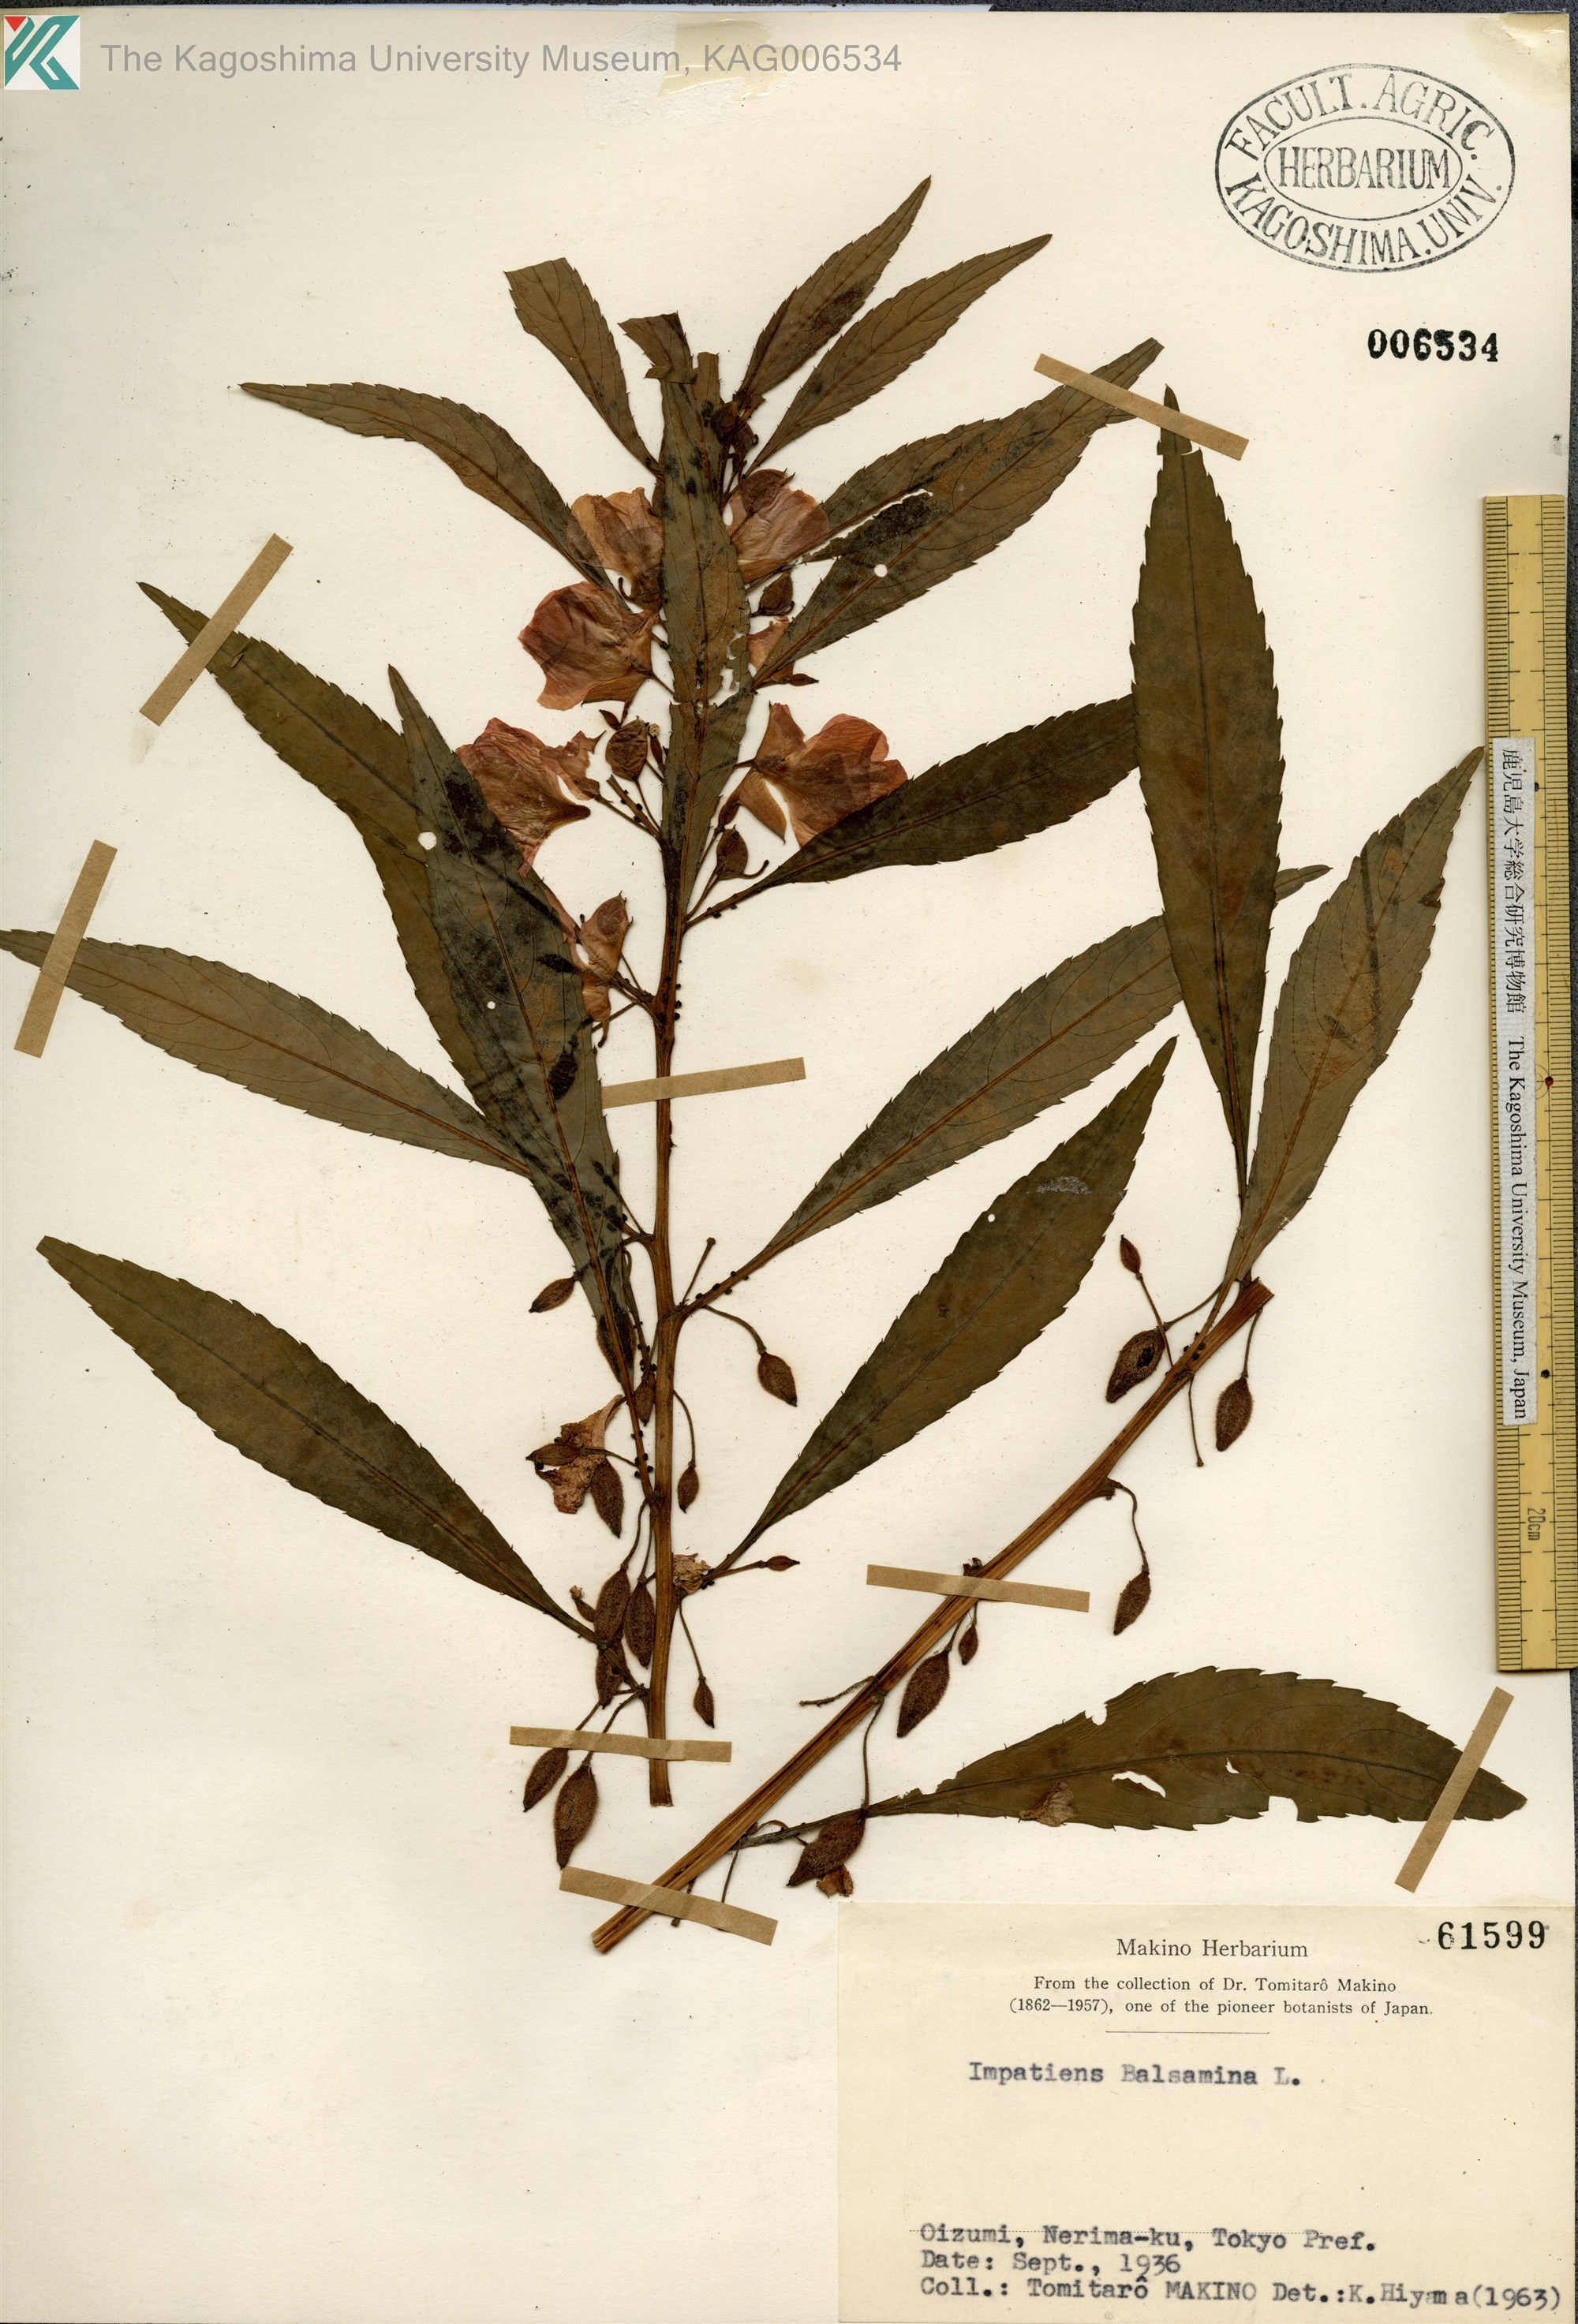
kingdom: Plantae
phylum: Tracheophyta
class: Magnoliopsida
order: Ericales
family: Balsaminaceae
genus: Impatiens
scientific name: Impatiens balsamina
